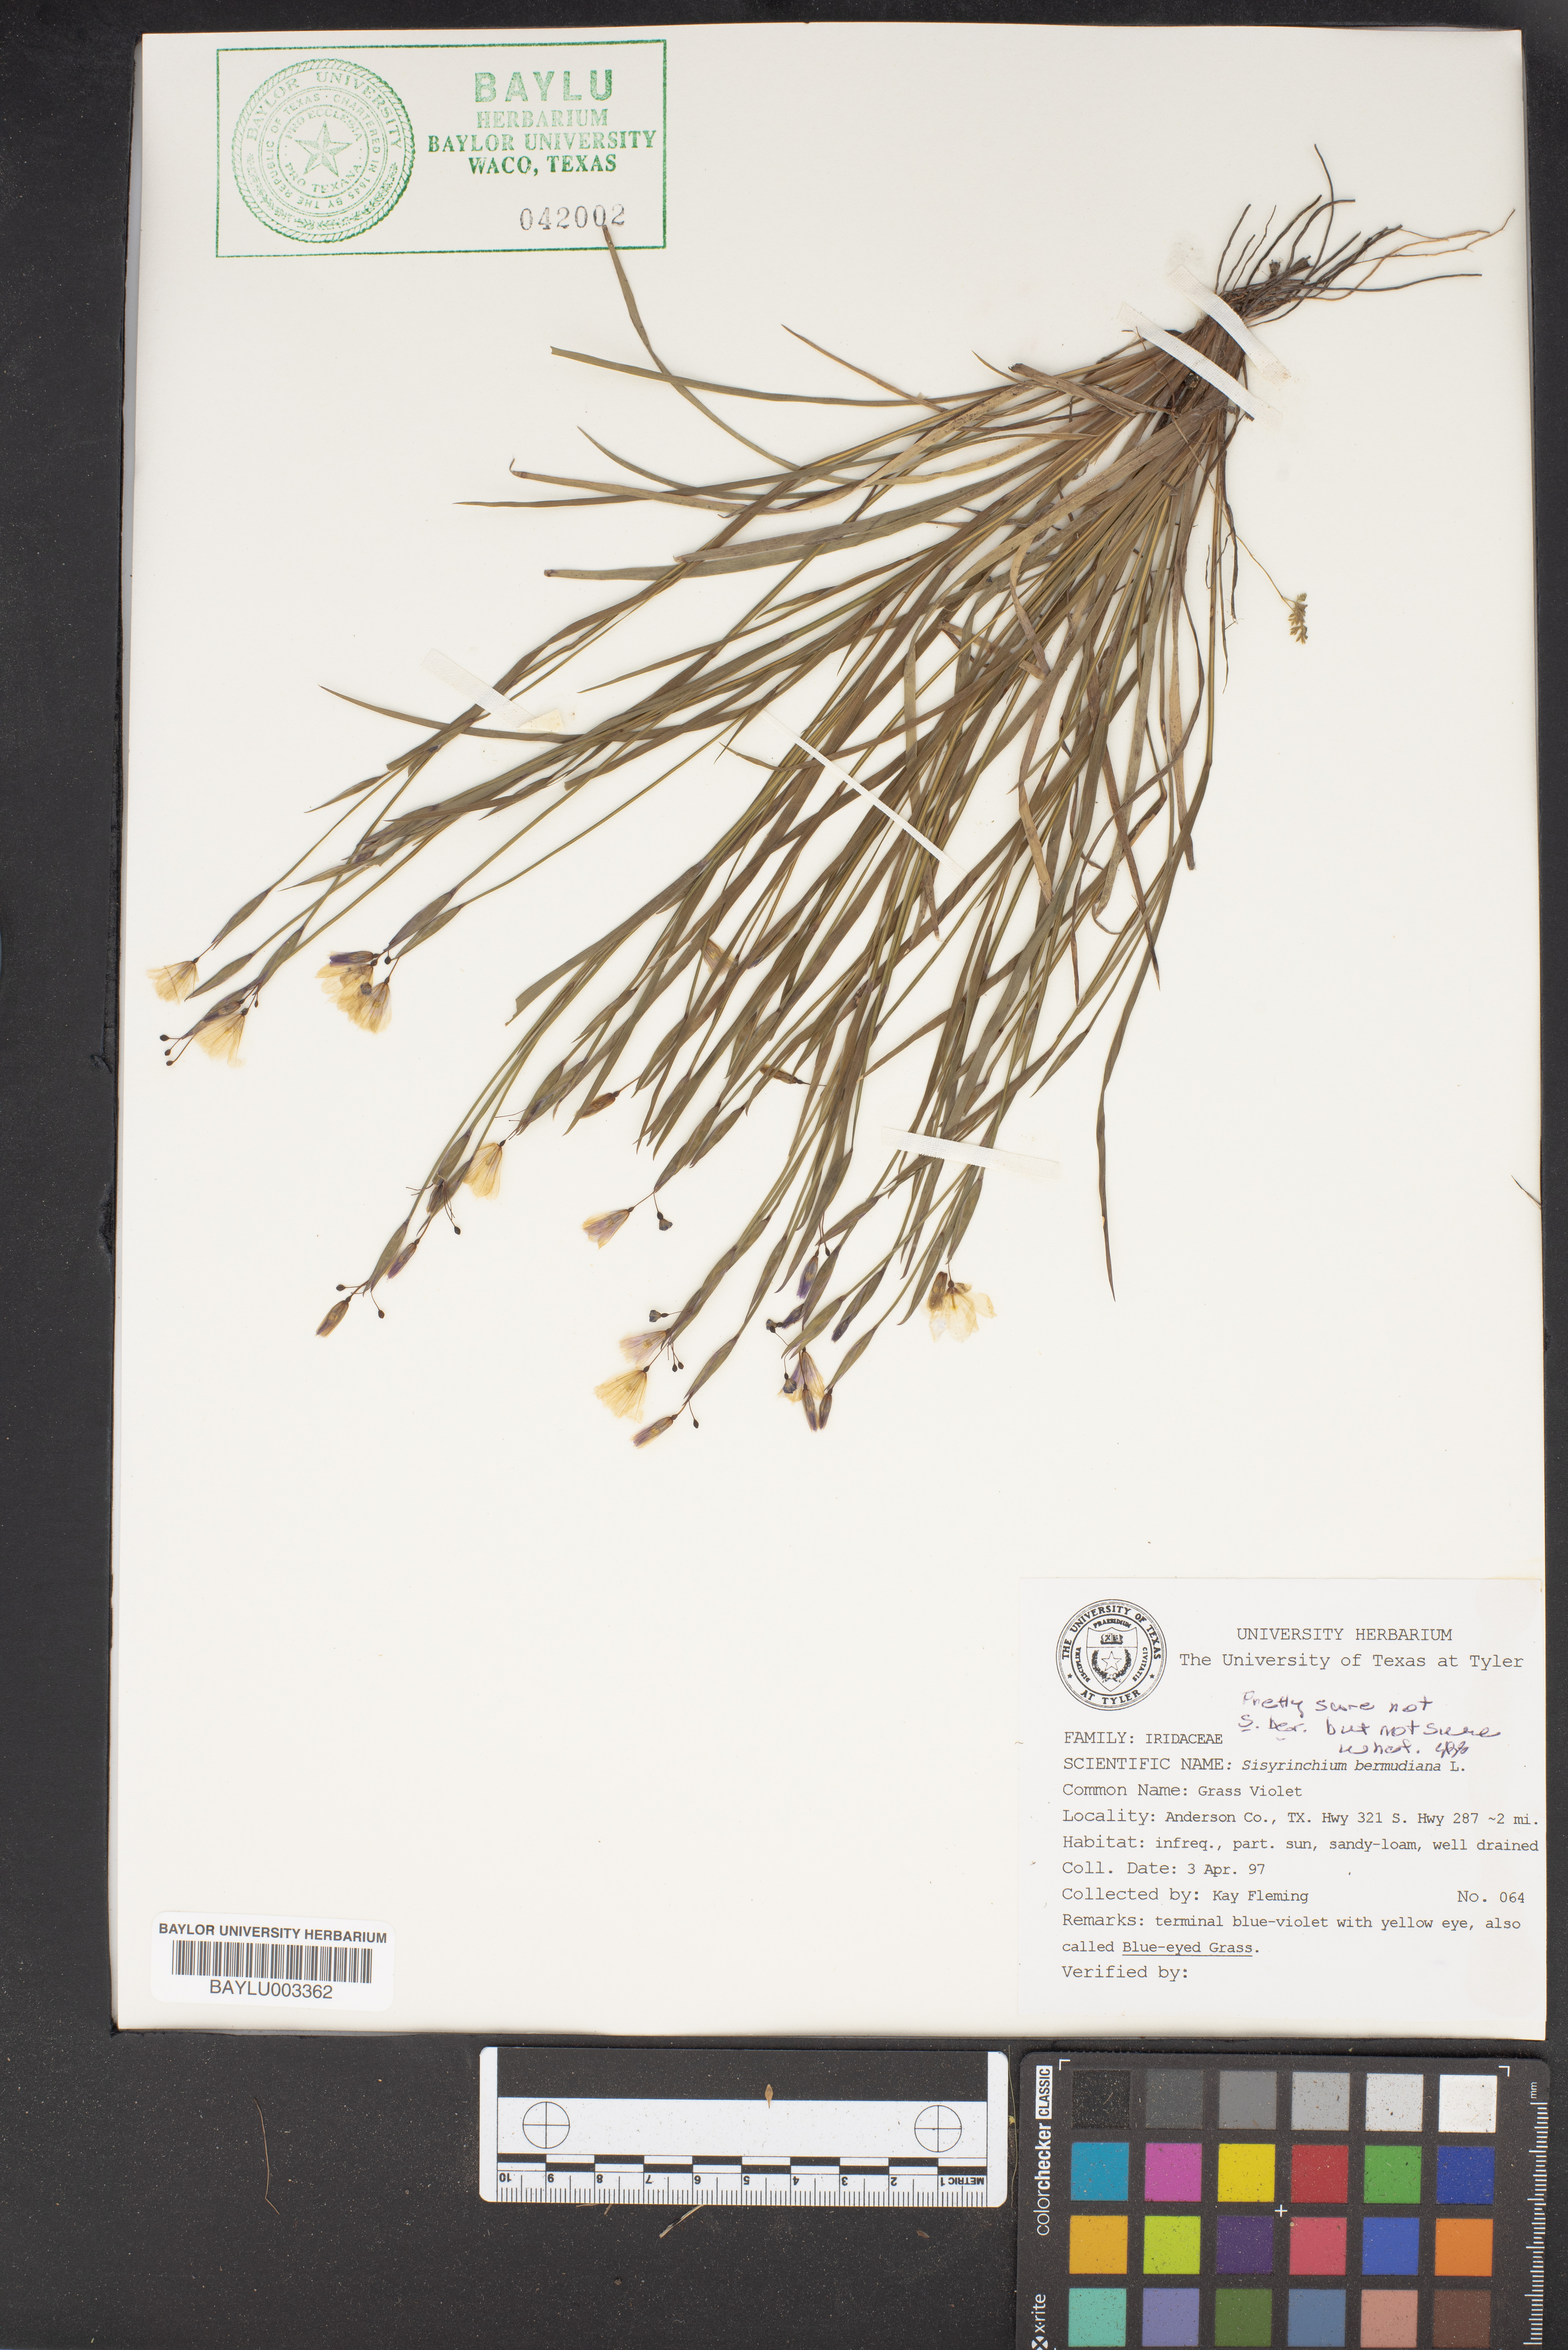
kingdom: Plantae
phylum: Tracheophyta
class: Liliopsida
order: Asparagales
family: Iridaceae
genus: Sisyrinchium
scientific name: Sisyrinchium bermudiana
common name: Blue-eyed-grass
